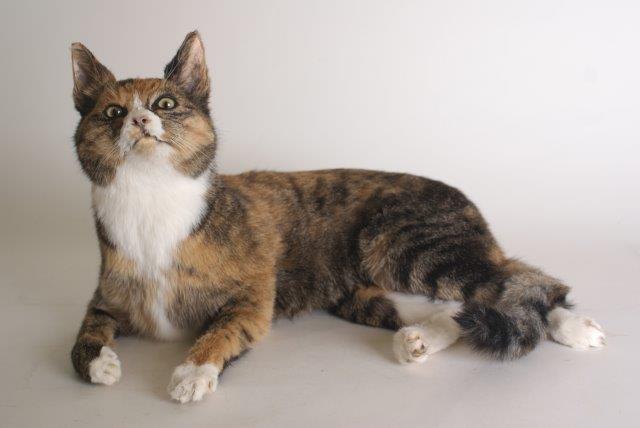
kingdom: Animalia
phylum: Chordata
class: Mammalia
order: Carnivora
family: Felidae
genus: Felis
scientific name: Felis catus
